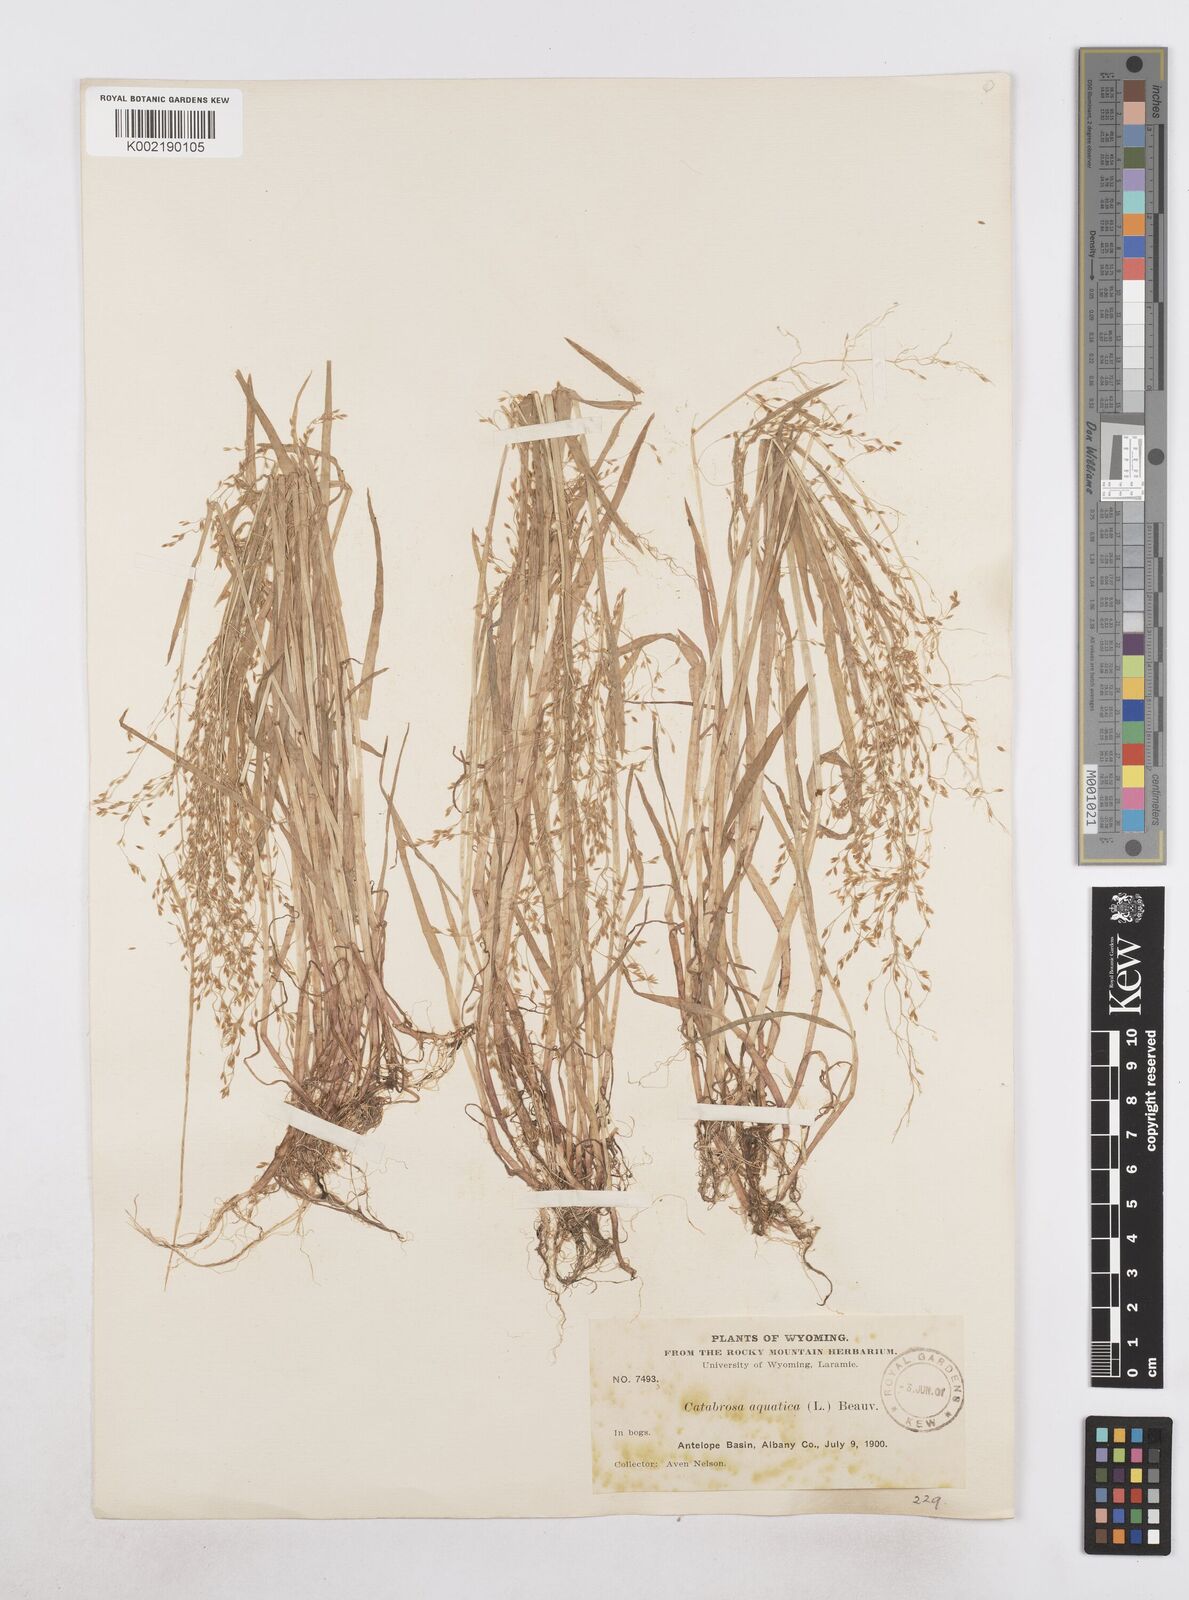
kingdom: Plantae
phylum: Tracheophyta
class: Liliopsida
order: Poales
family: Poaceae
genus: Catabrosa
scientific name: Catabrosa aquatica
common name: Whorl-grass
